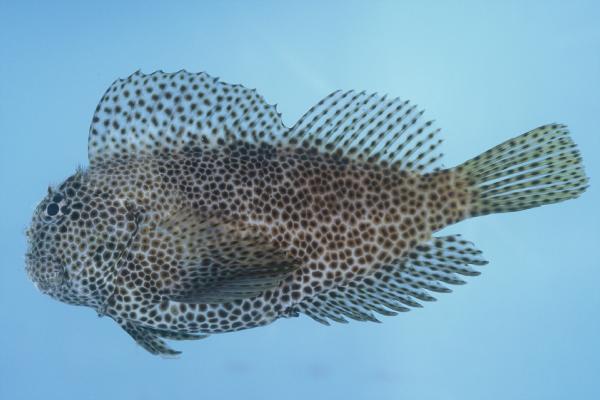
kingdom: Animalia
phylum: Chordata
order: Perciformes
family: Blenniidae
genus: Exallias
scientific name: Exallias brevis
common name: Leopard blenny
